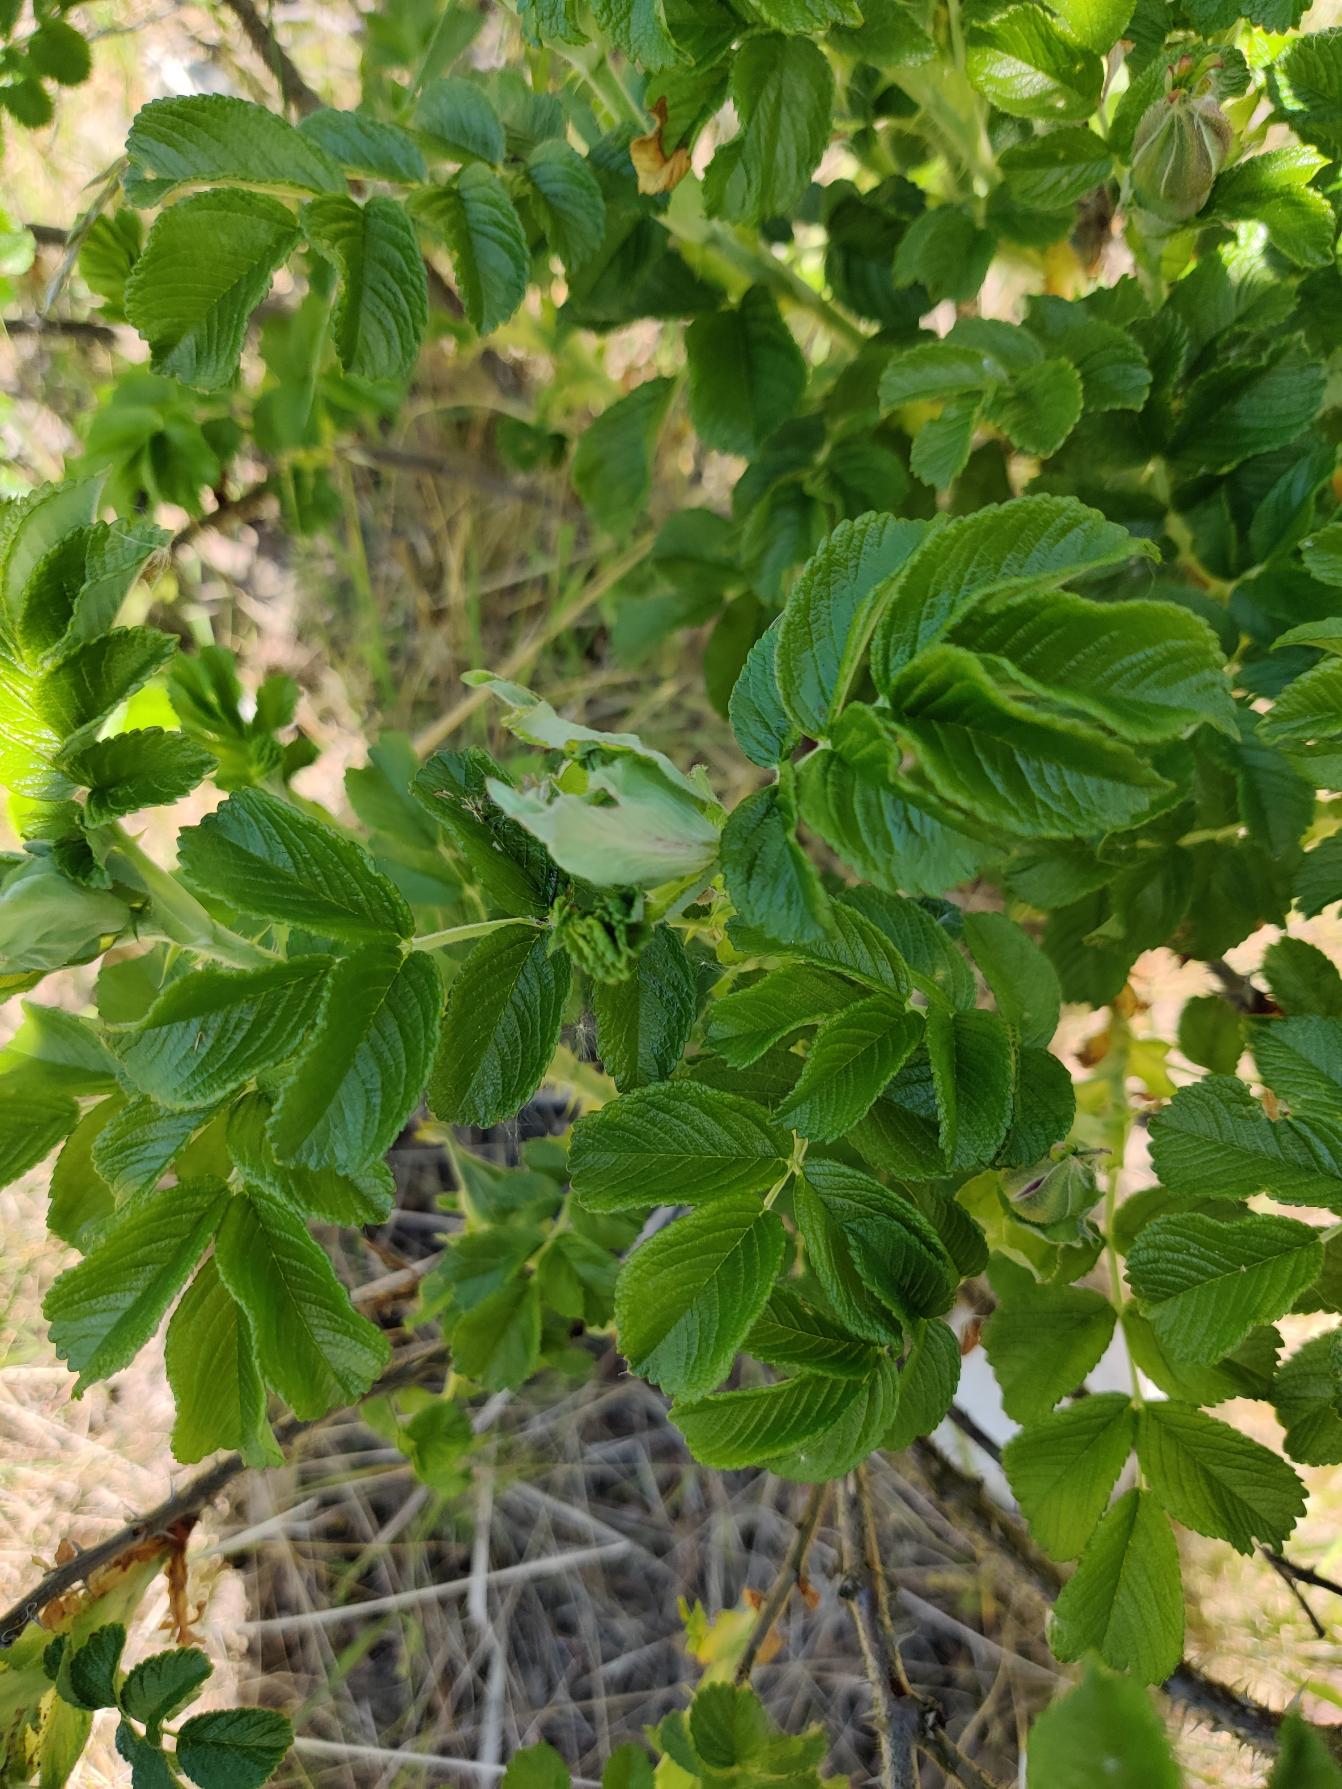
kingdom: Plantae
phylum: Tracheophyta
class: Magnoliopsida
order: Rosales
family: Rosaceae
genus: Rosa
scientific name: Rosa rugosa
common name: Rynket rose
